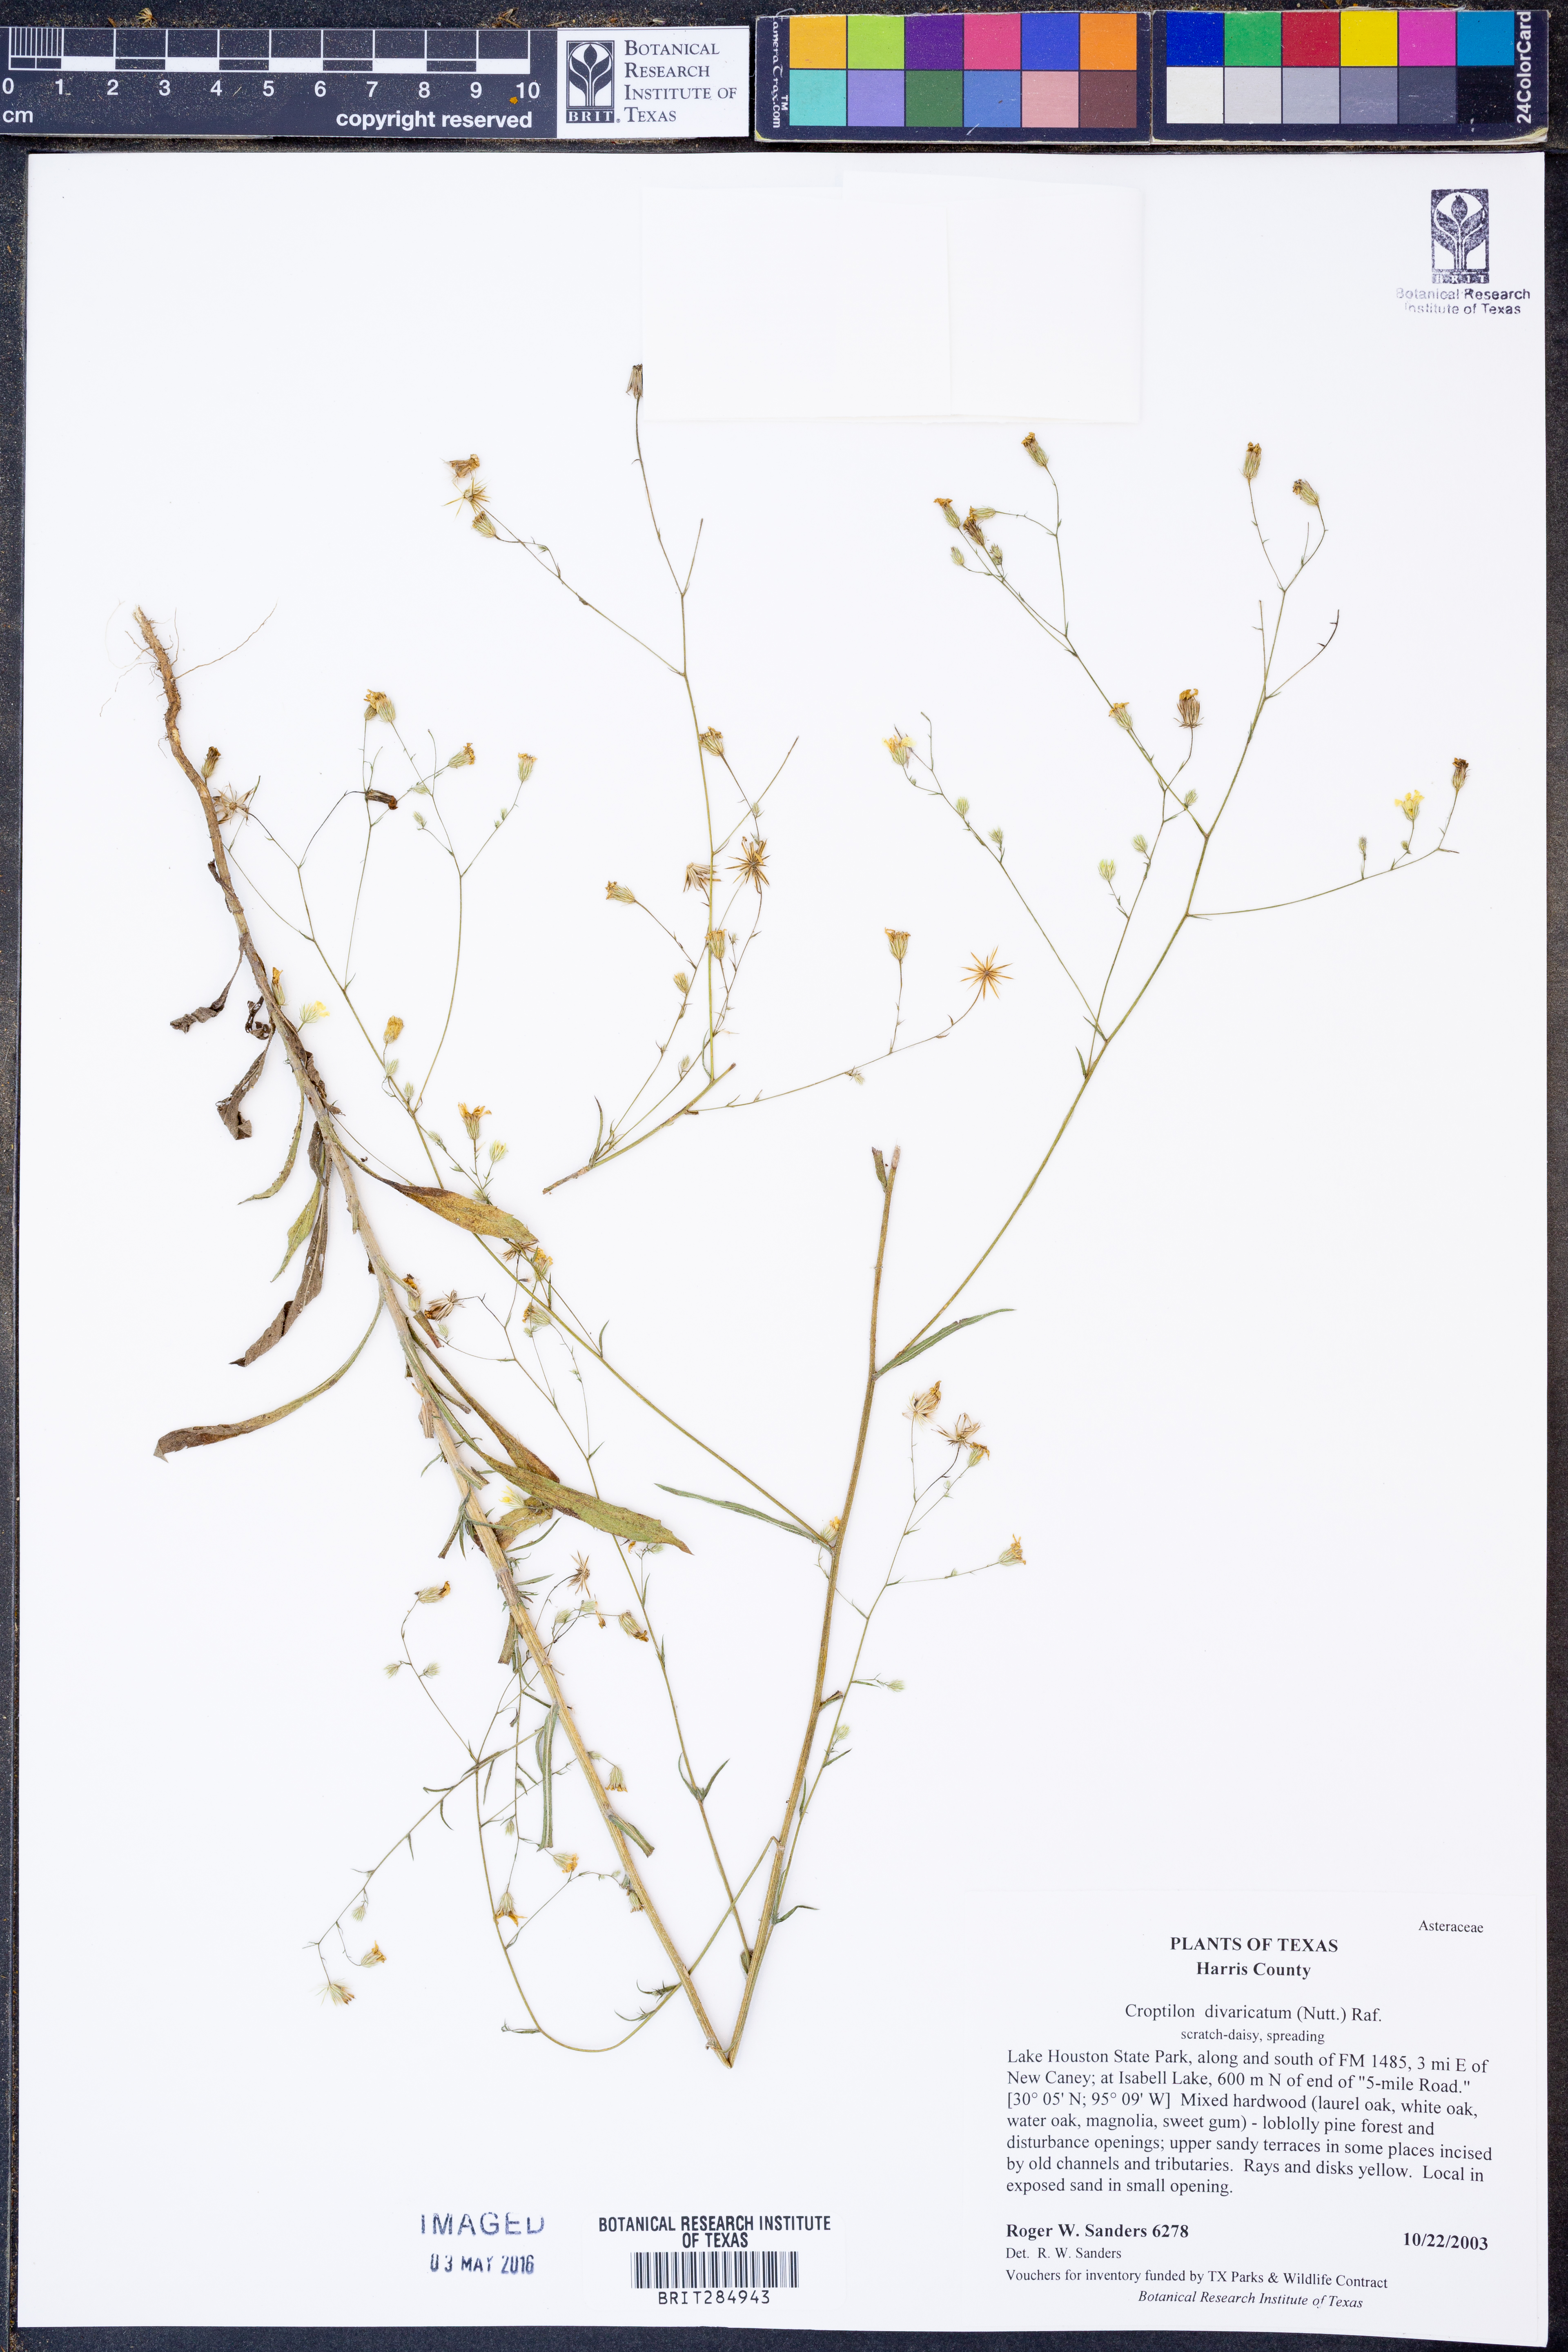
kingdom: Plantae
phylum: Tracheophyta
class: Magnoliopsida
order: Asterales
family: Asteraceae
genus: Croptilon
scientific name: Croptilon divaricatum
